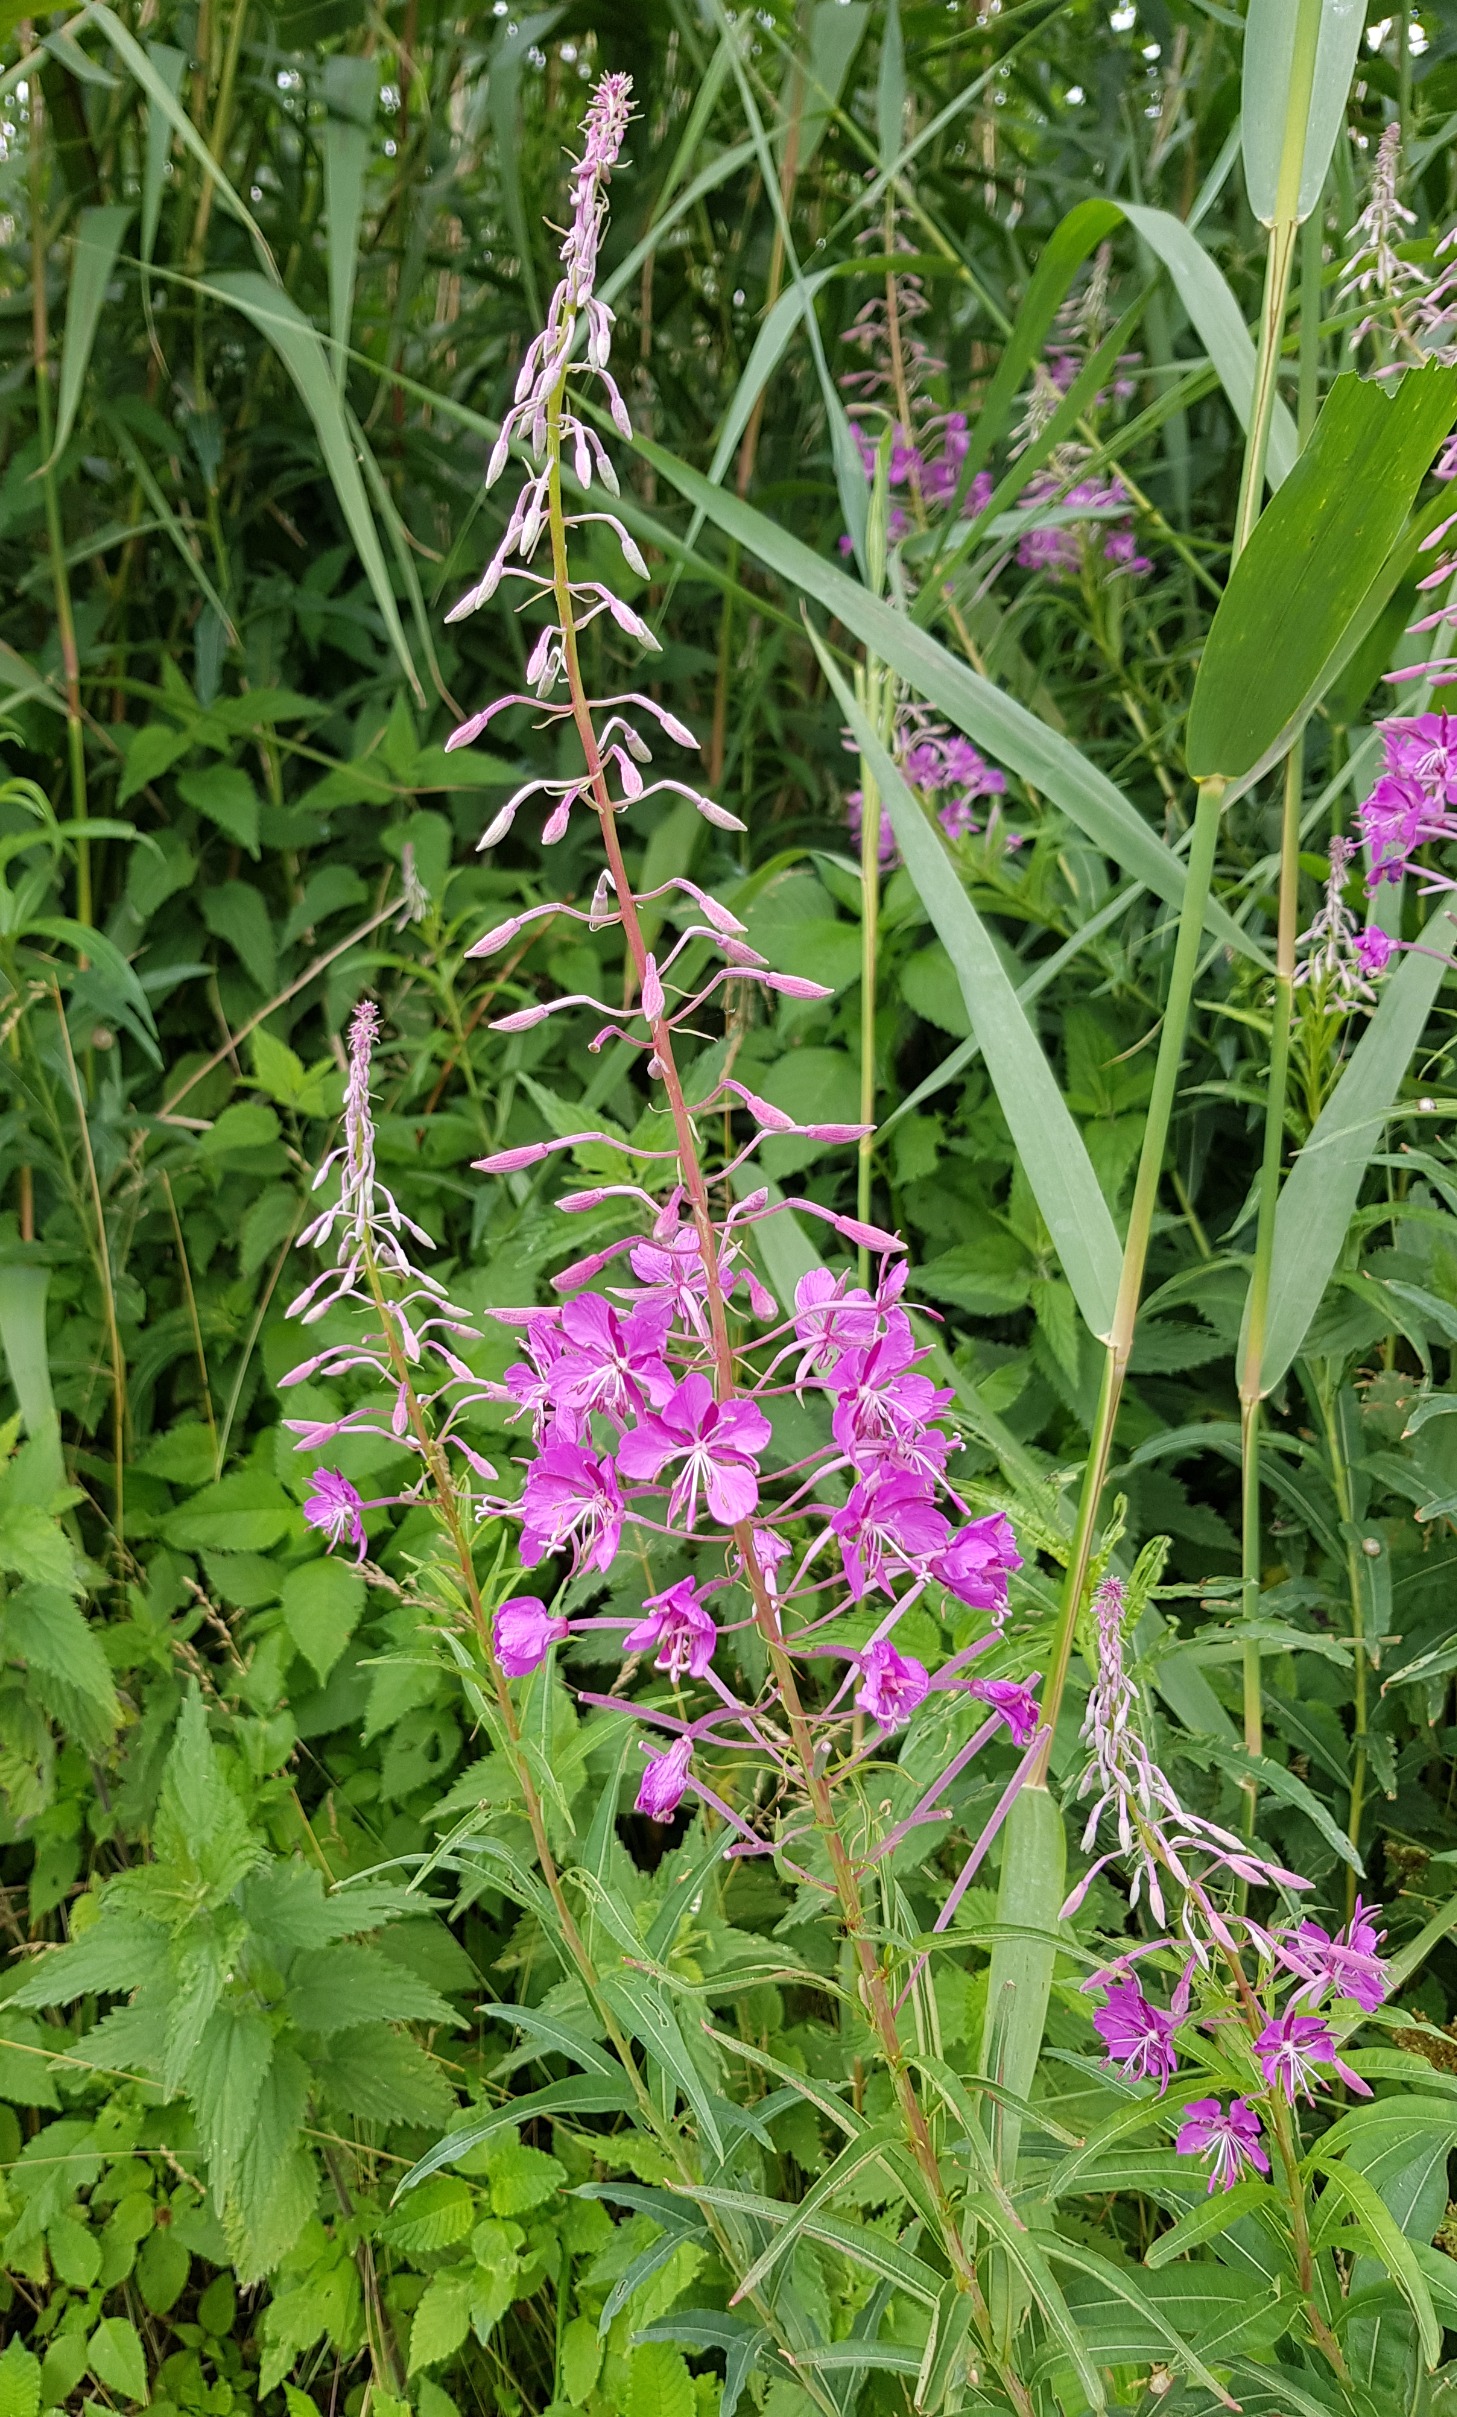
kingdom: Plantae
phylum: Tracheophyta
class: Magnoliopsida
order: Myrtales
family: Onagraceae
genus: Chamaenerion
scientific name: Chamaenerion angustifolium
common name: Gederams
